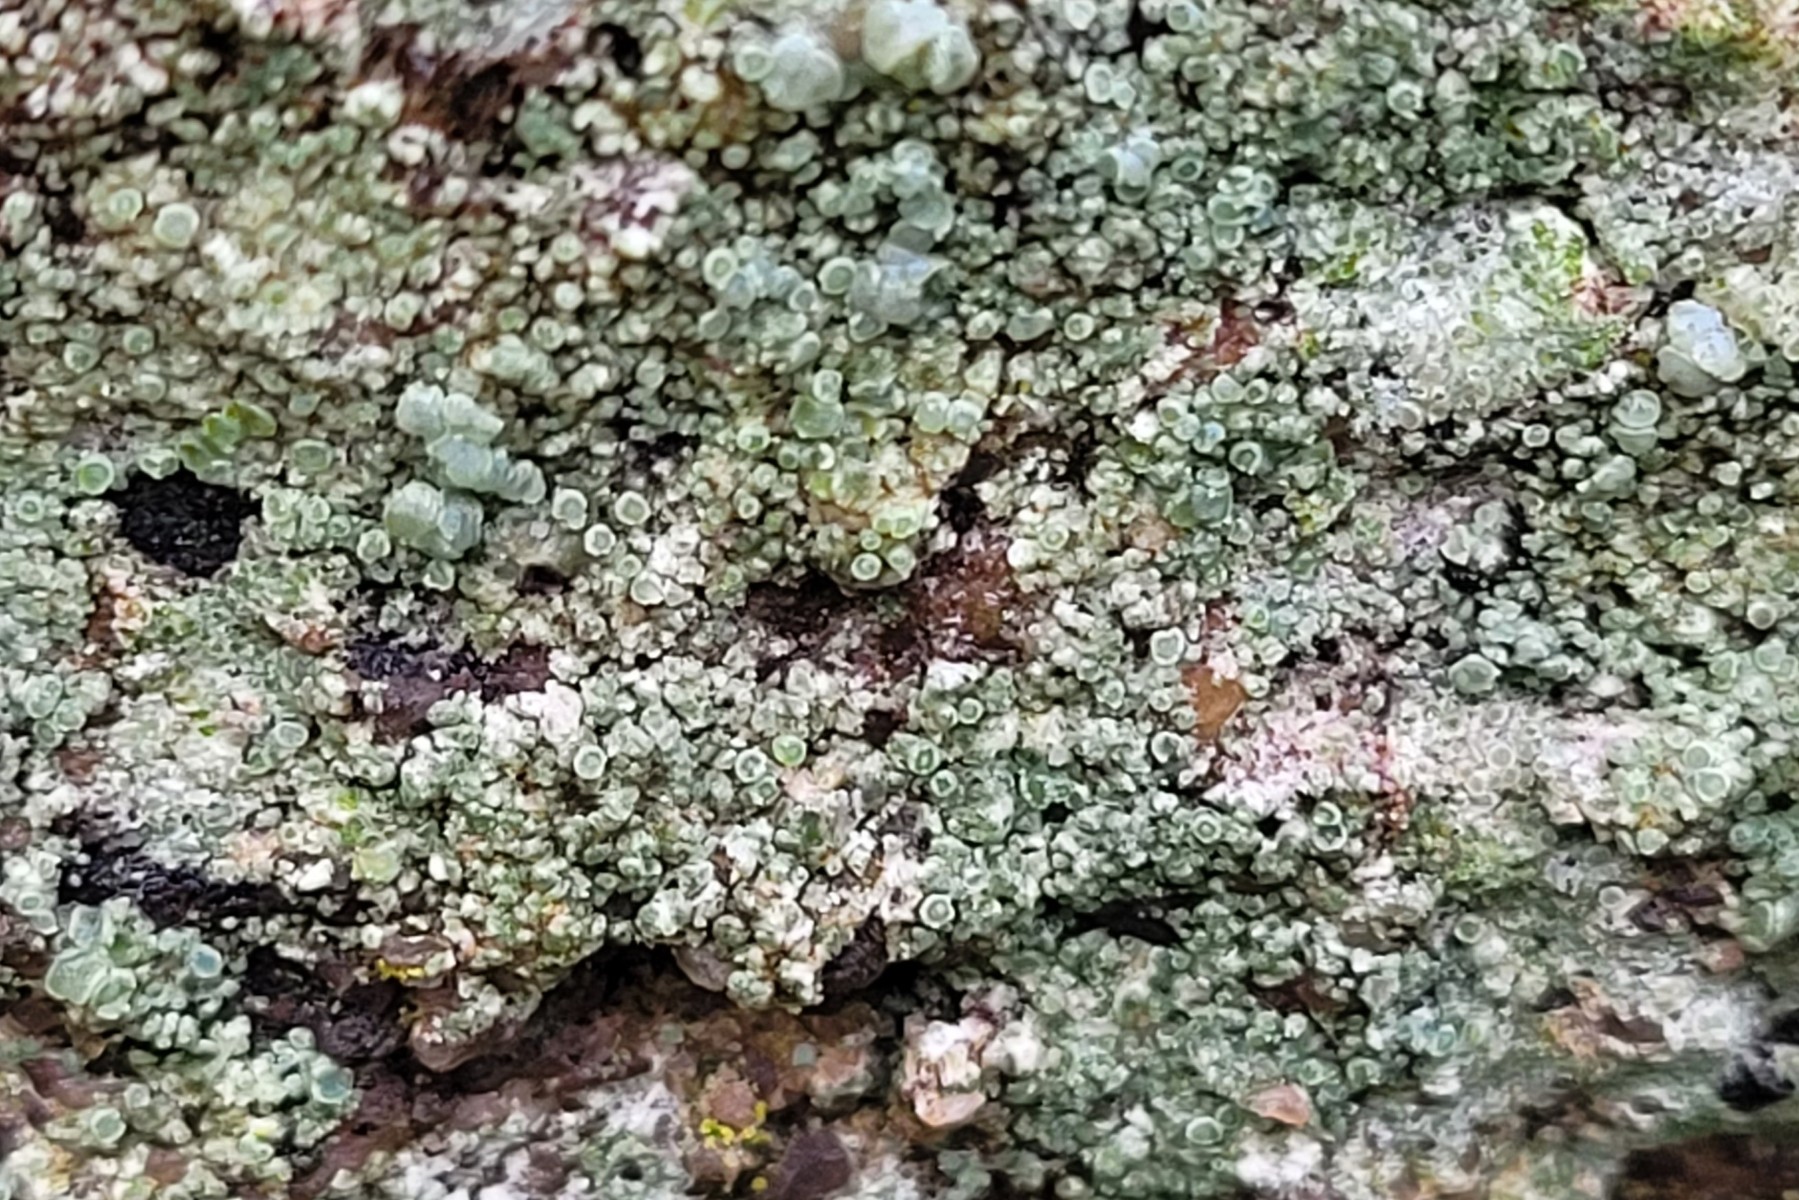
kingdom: Fungi
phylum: Ascomycota
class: Lecanoromycetes
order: Lecanorales
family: Lecanoraceae
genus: Lecanora
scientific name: Lecanora polytropa
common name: bleggrøn kantskivelav
